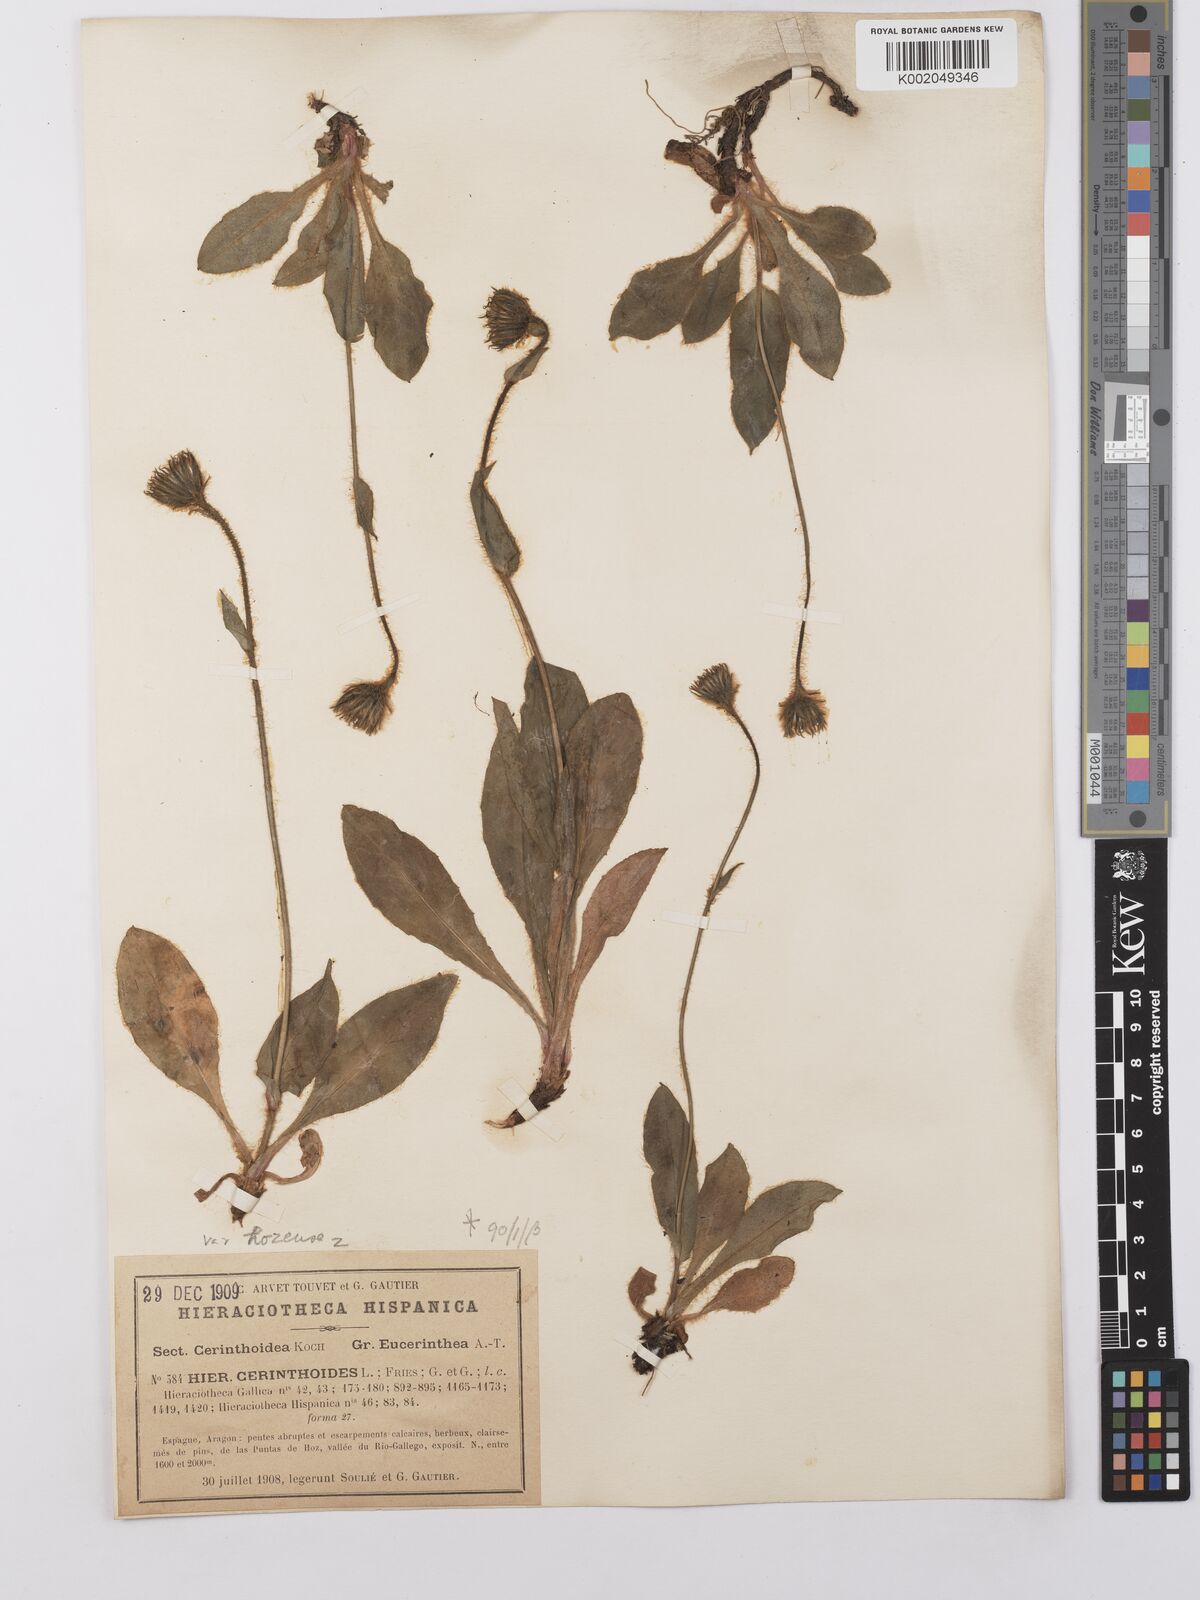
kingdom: Plantae
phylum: Tracheophyta
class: Magnoliopsida
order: Asterales
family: Asteraceae
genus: Hieracium
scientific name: Hieracium cerinthoides
